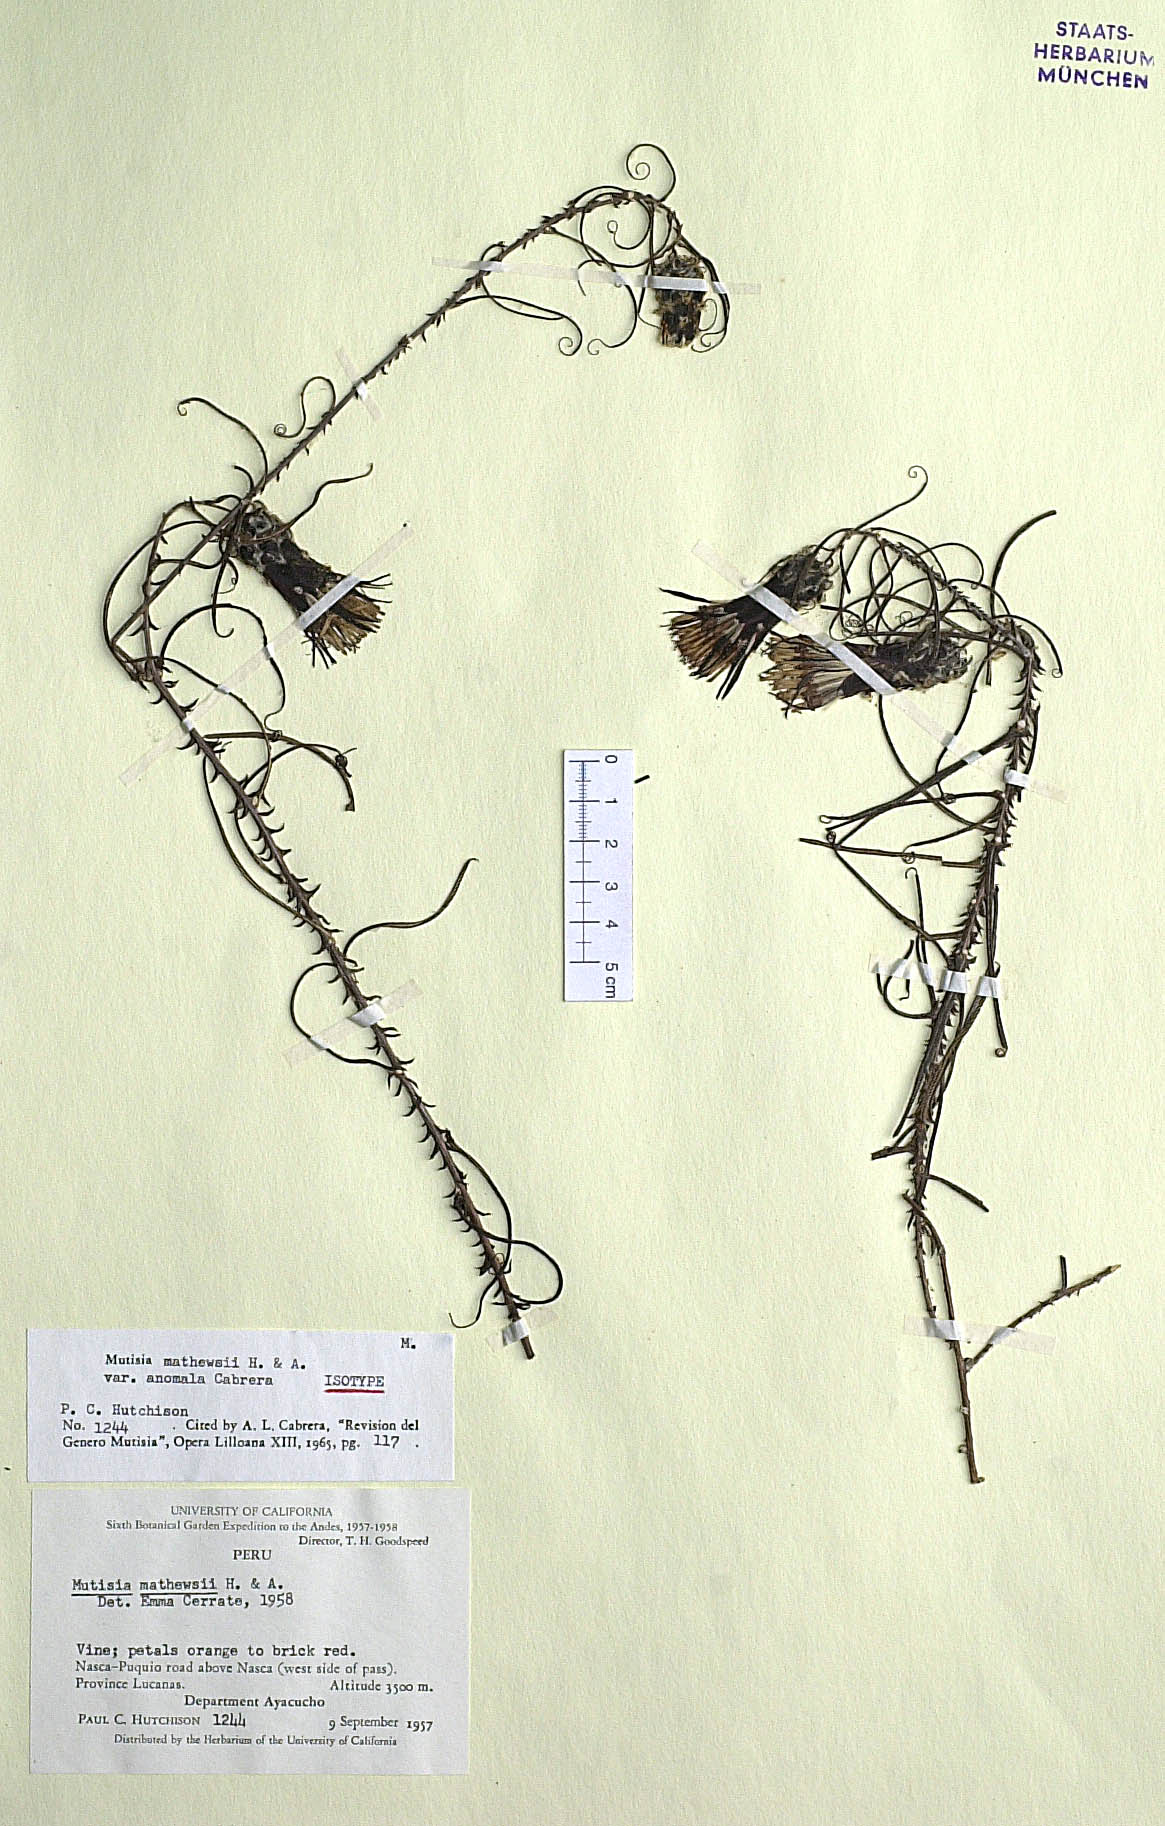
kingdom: Plantae
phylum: Tracheophyta
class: Magnoliopsida
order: Asterales
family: Asteraceae
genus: Mutisia
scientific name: Mutisia mathewsii
